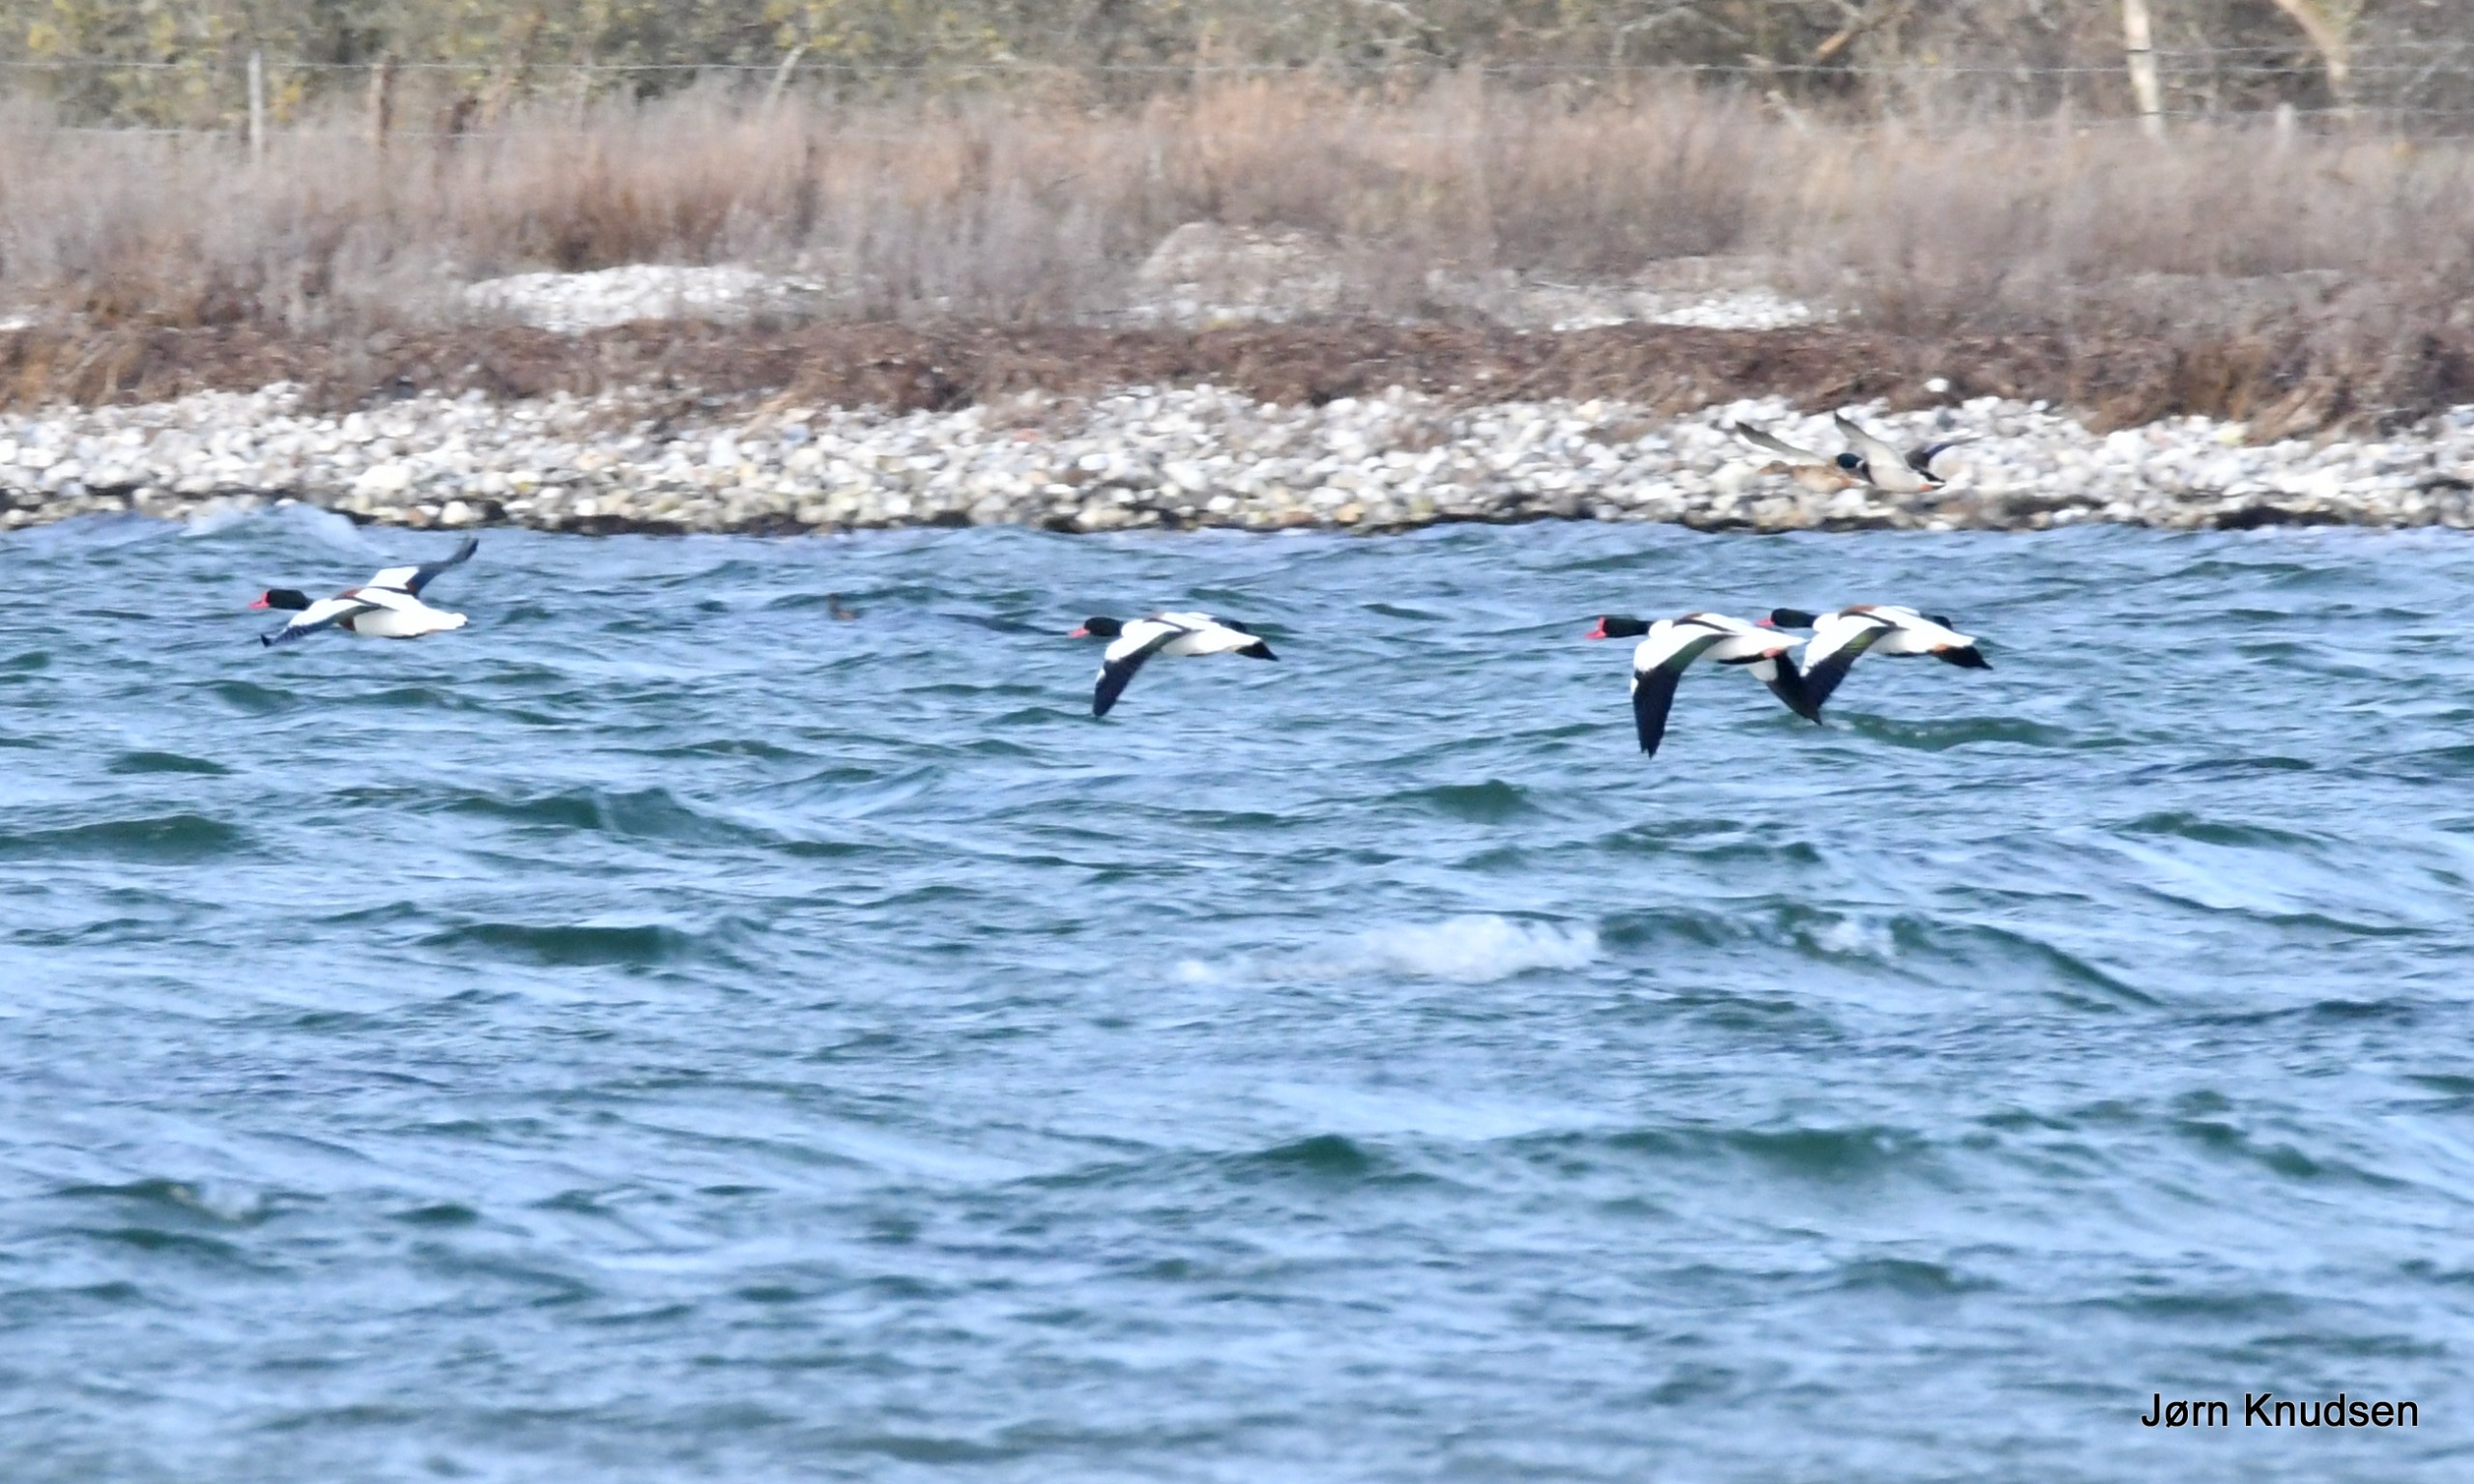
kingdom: Animalia
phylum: Chordata
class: Aves
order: Anseriformes
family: Anatidae
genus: Tadorna
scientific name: Tadorna tadorna
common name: Gravand
